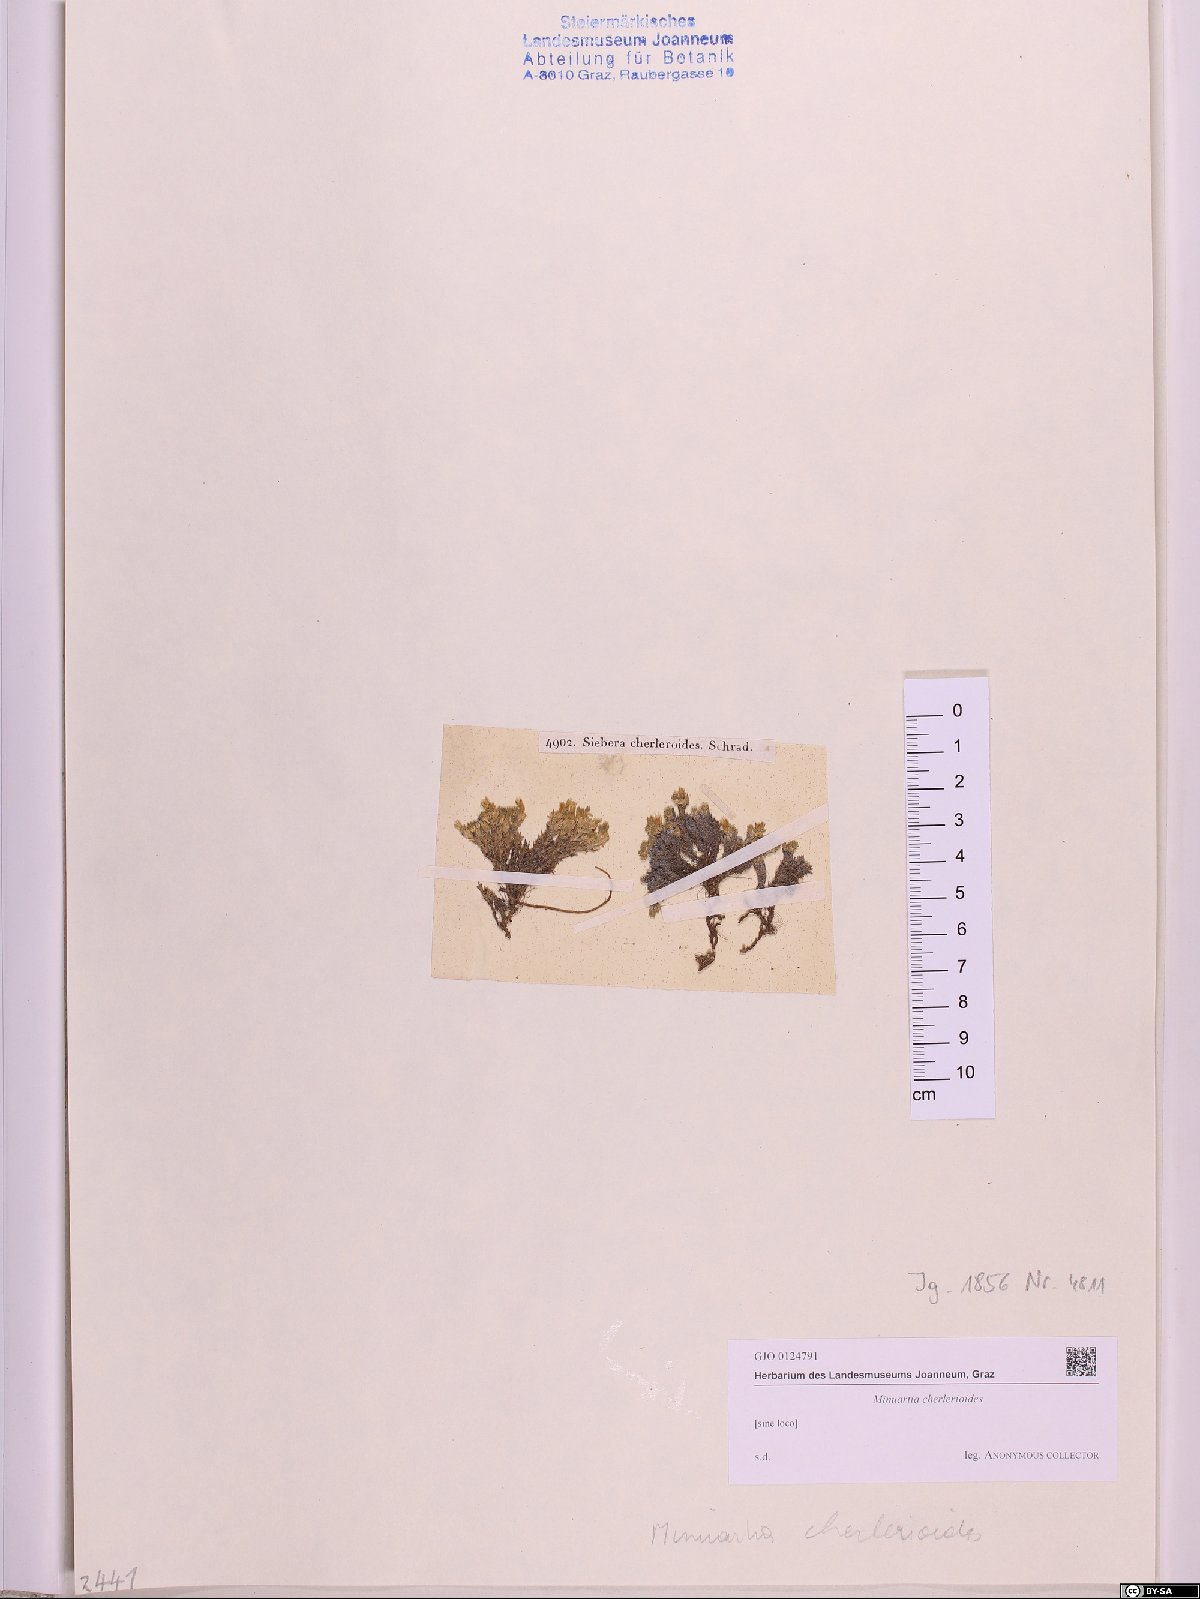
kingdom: Plantae
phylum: Tracheophyta
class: Magnoliopsida
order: Caryophyllales
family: Caryophyllaceae
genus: Facchinia
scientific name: Facchinia cherlerioides
